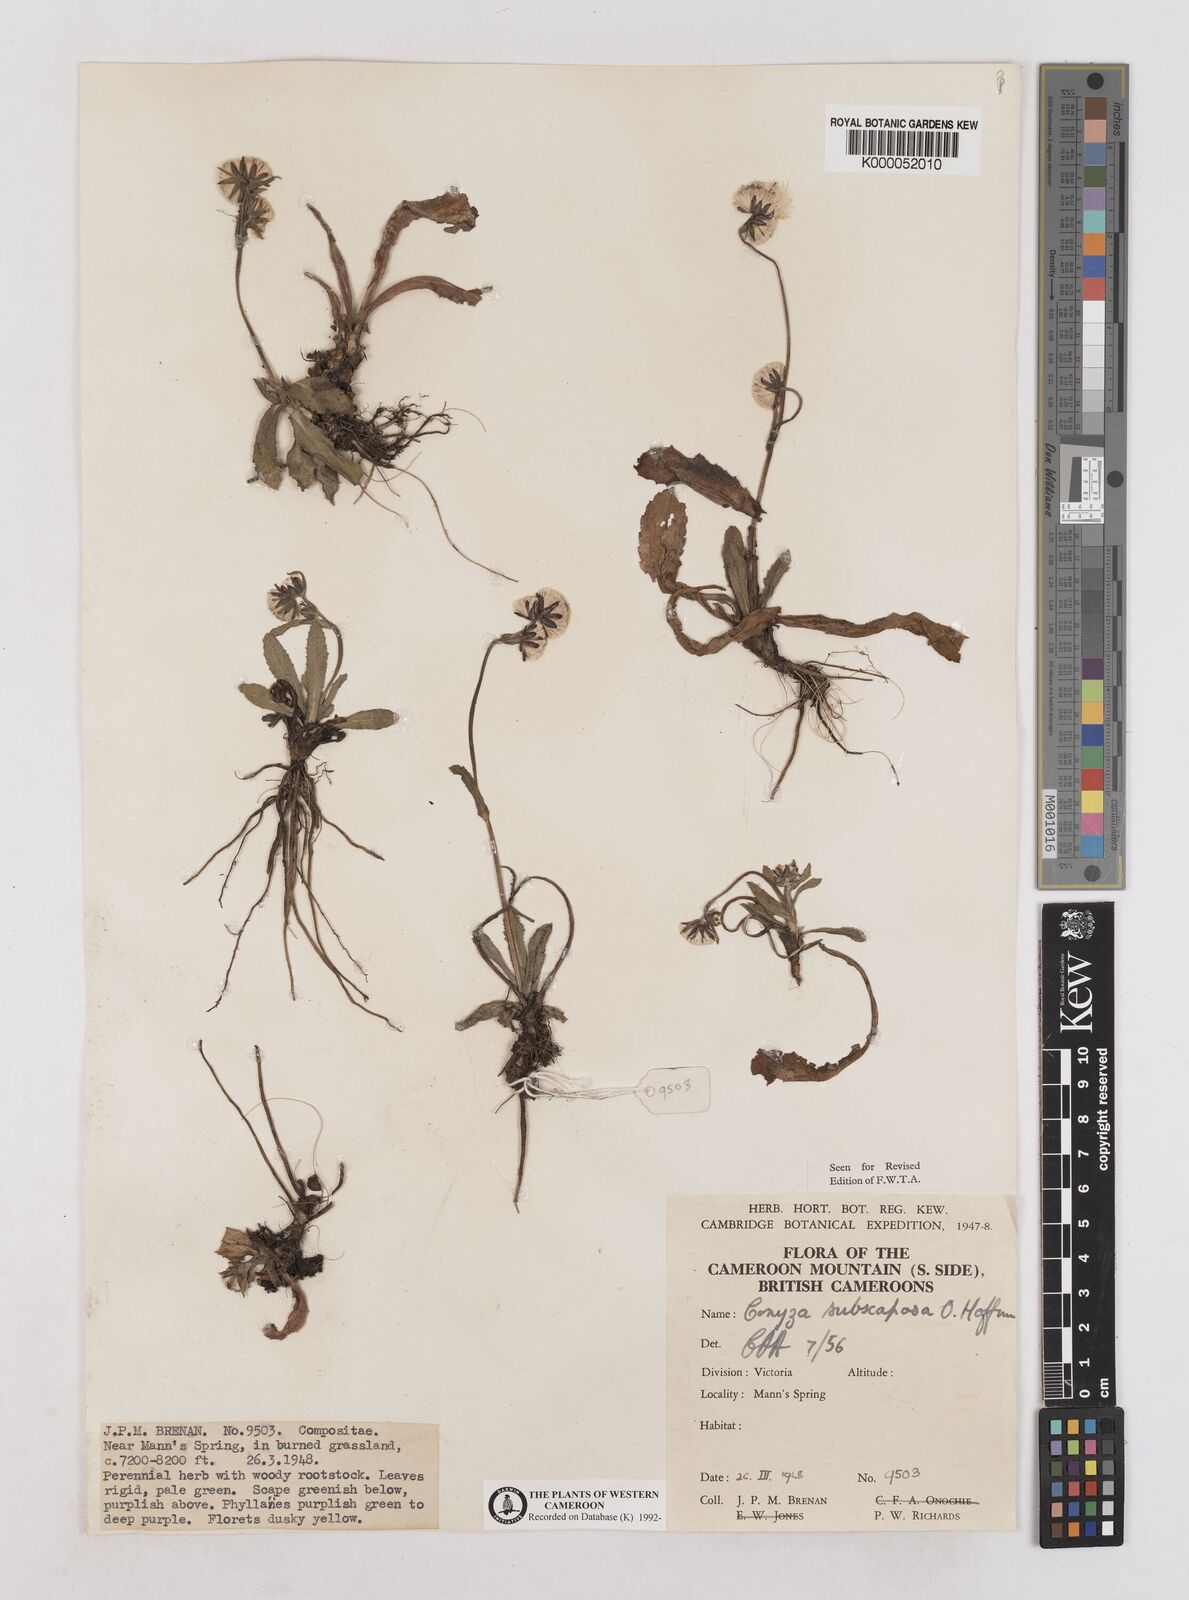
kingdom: Plantae
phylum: Tracheophyta
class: Magnoliopsida
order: Asterales
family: Asteraceae
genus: Eschenbachia
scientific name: Eschenbachia subscaposa
